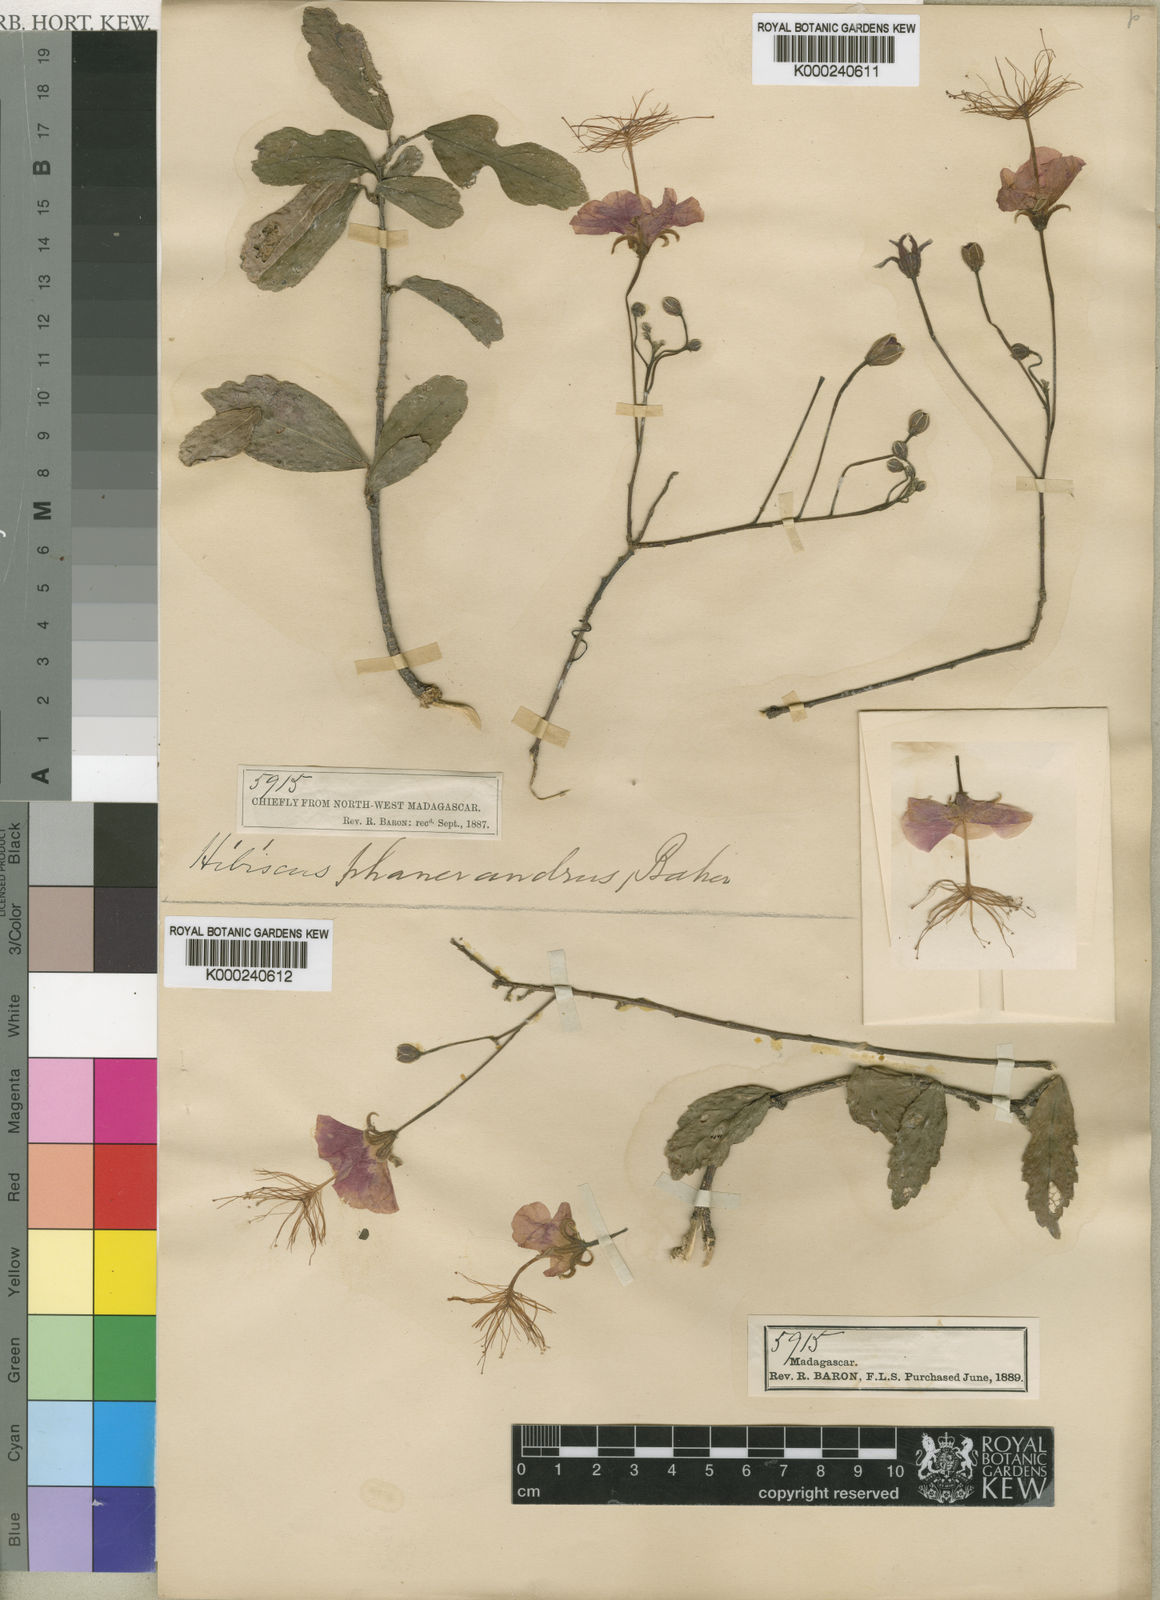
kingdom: Plantae
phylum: Tracheophyta
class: Magnoliopsida
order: Malvales
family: Malvaceae
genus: Hibiscus
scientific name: Hibiscus grandidieri
